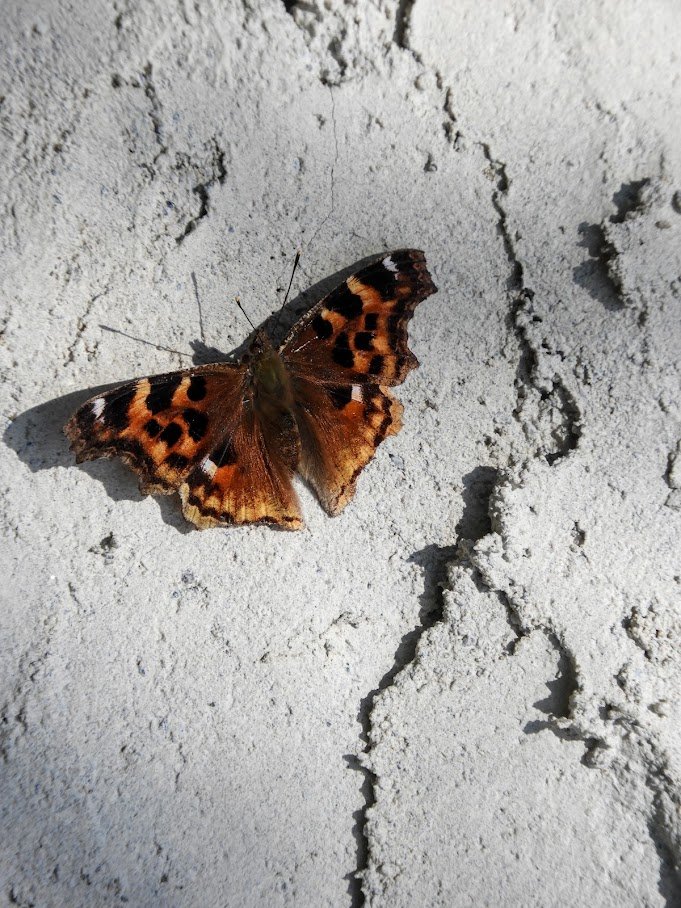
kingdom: Animalia
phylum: Arthropoda
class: Insecta
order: Lepidoptera
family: Nymphalidae
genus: Polygonia
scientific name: Polygonia vaualbum
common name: Compton Tortoiseshell
